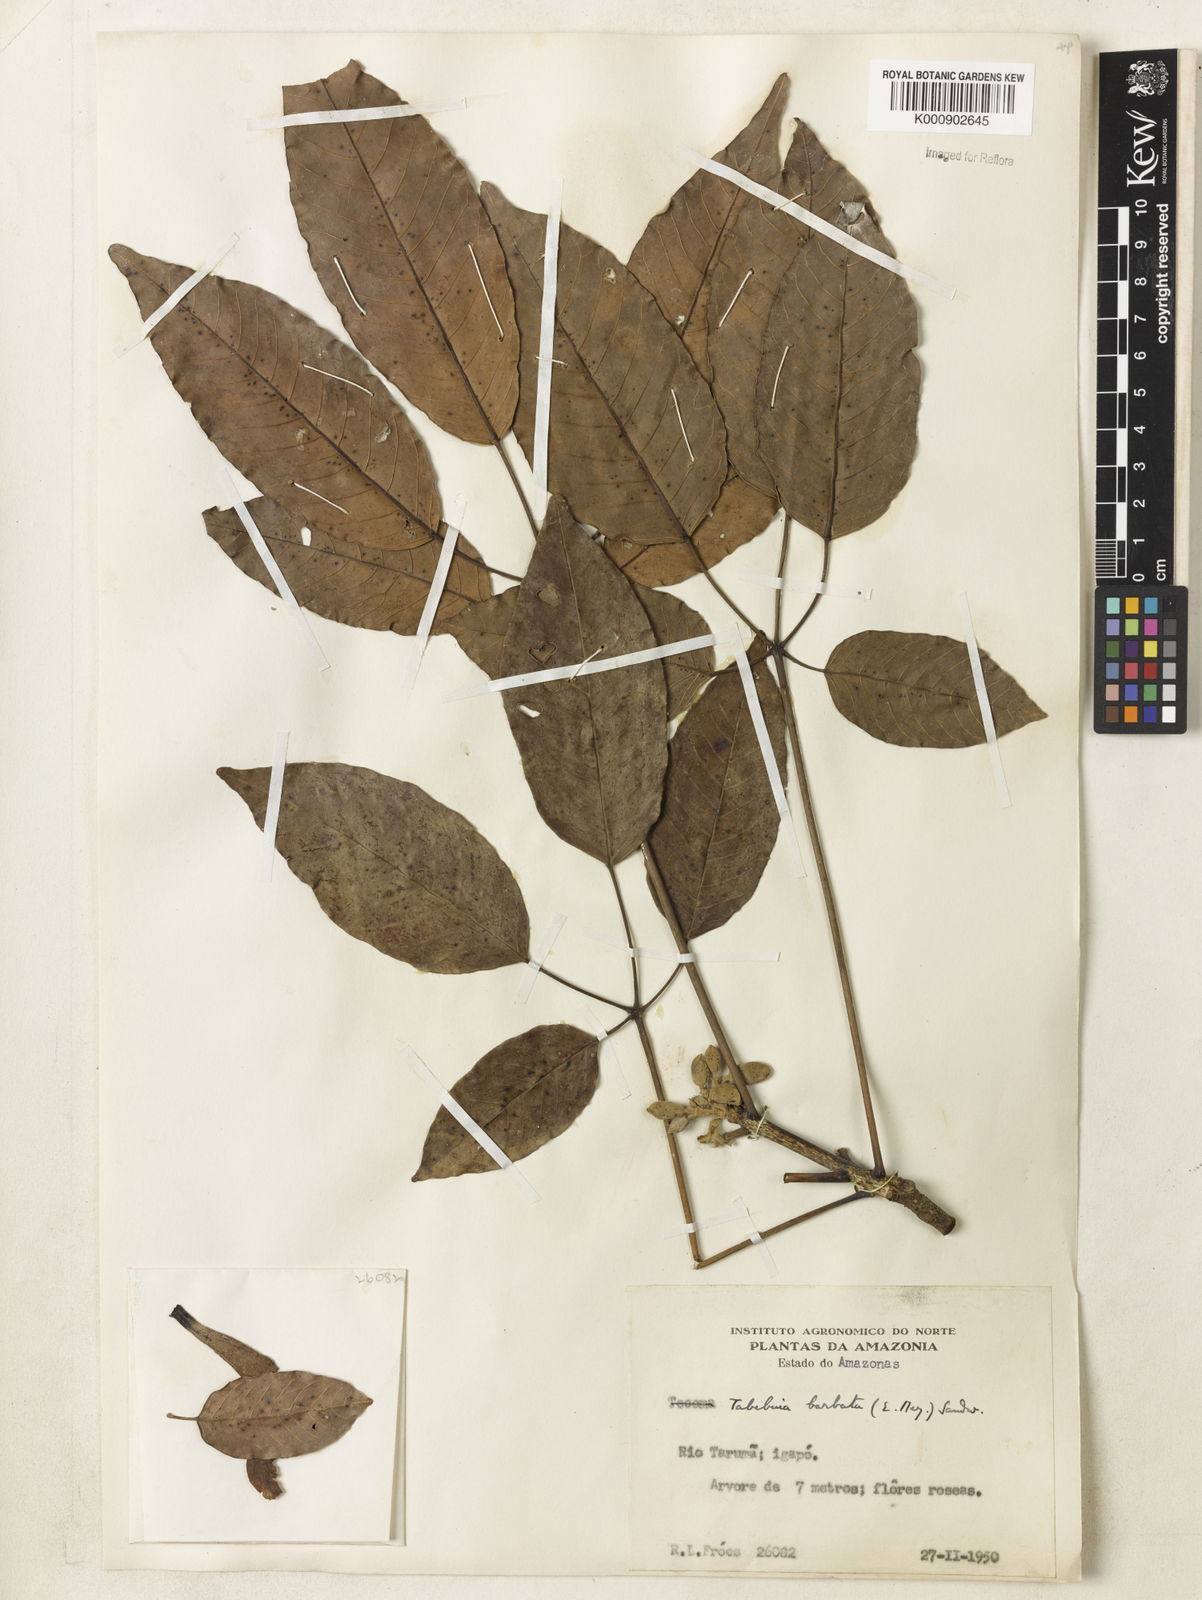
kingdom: Plantae
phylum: Tracheophyta
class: Magnoliopsida
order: Lamiales
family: Bignoniaceae
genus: Handroanthus
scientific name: Handroanthus barbatus
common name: Trumpet trees
